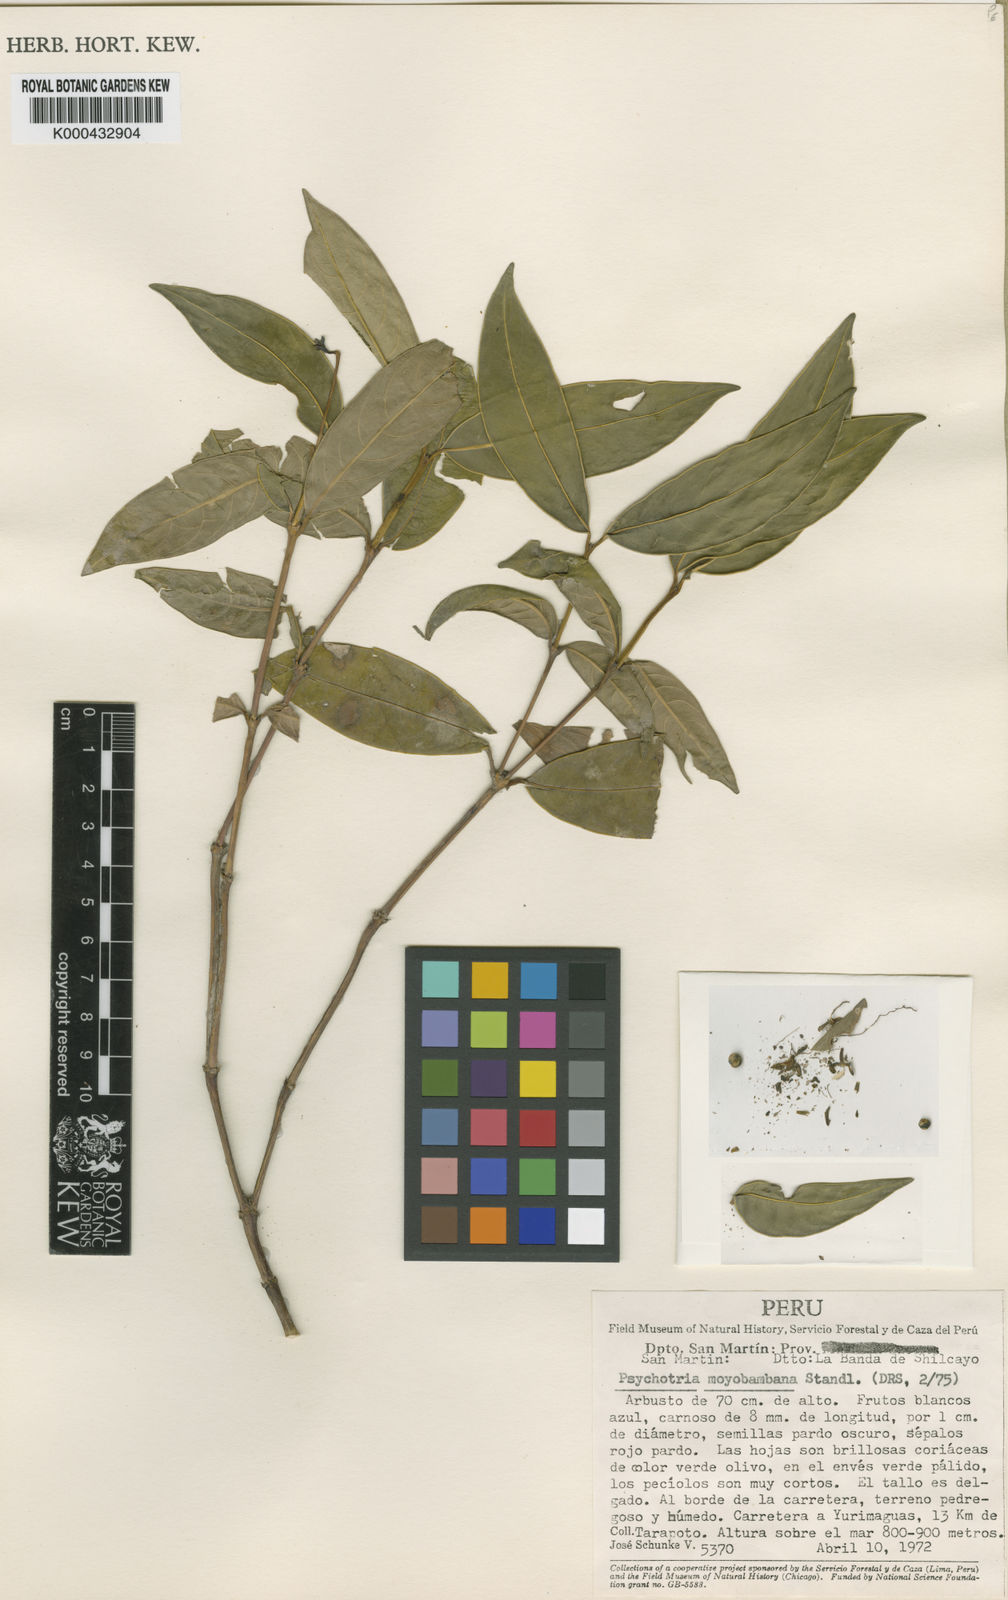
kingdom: Plantae
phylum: Tracheophyta
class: Magnoliopsida
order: Gentianales
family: Rubiaceae
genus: Palicourea
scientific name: Palicourea moyobambana
